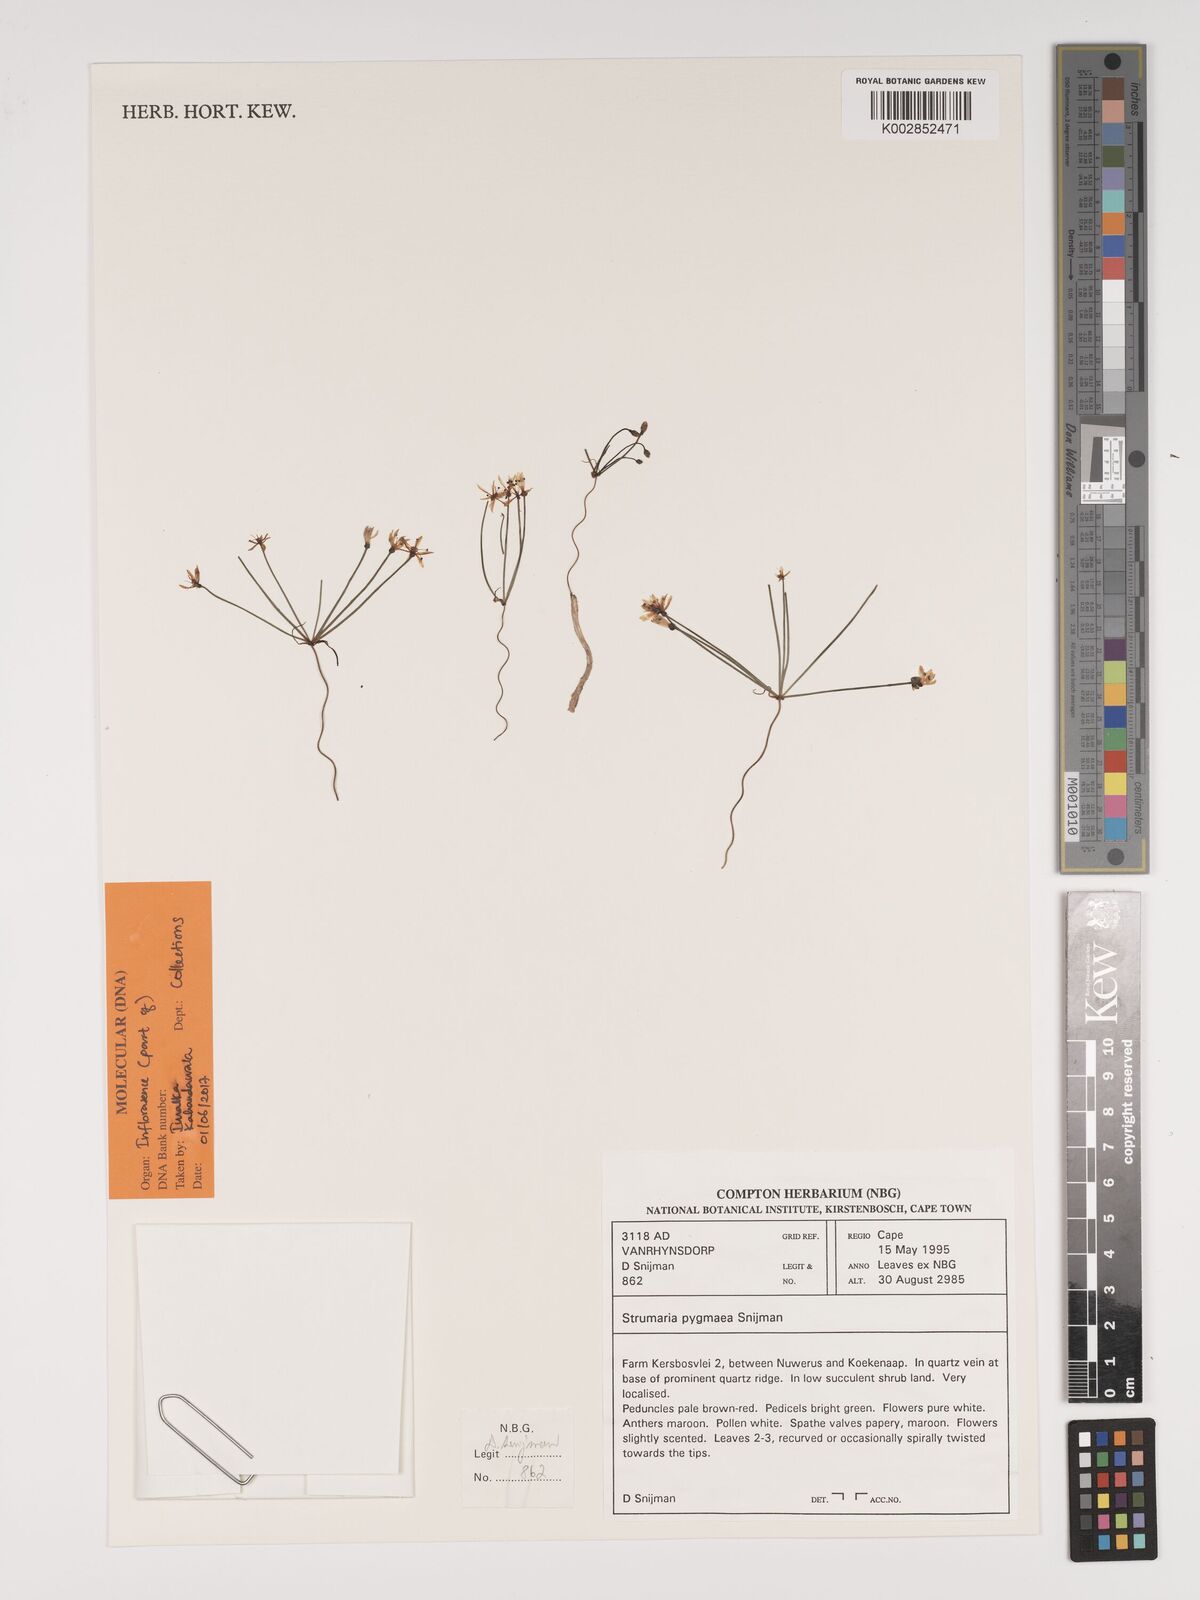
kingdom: Plantae
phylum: Tracheophyta
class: Liliopsida
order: Asparagales
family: Amaryllidaceae
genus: Strumaria
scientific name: Strumaria pygmaea
